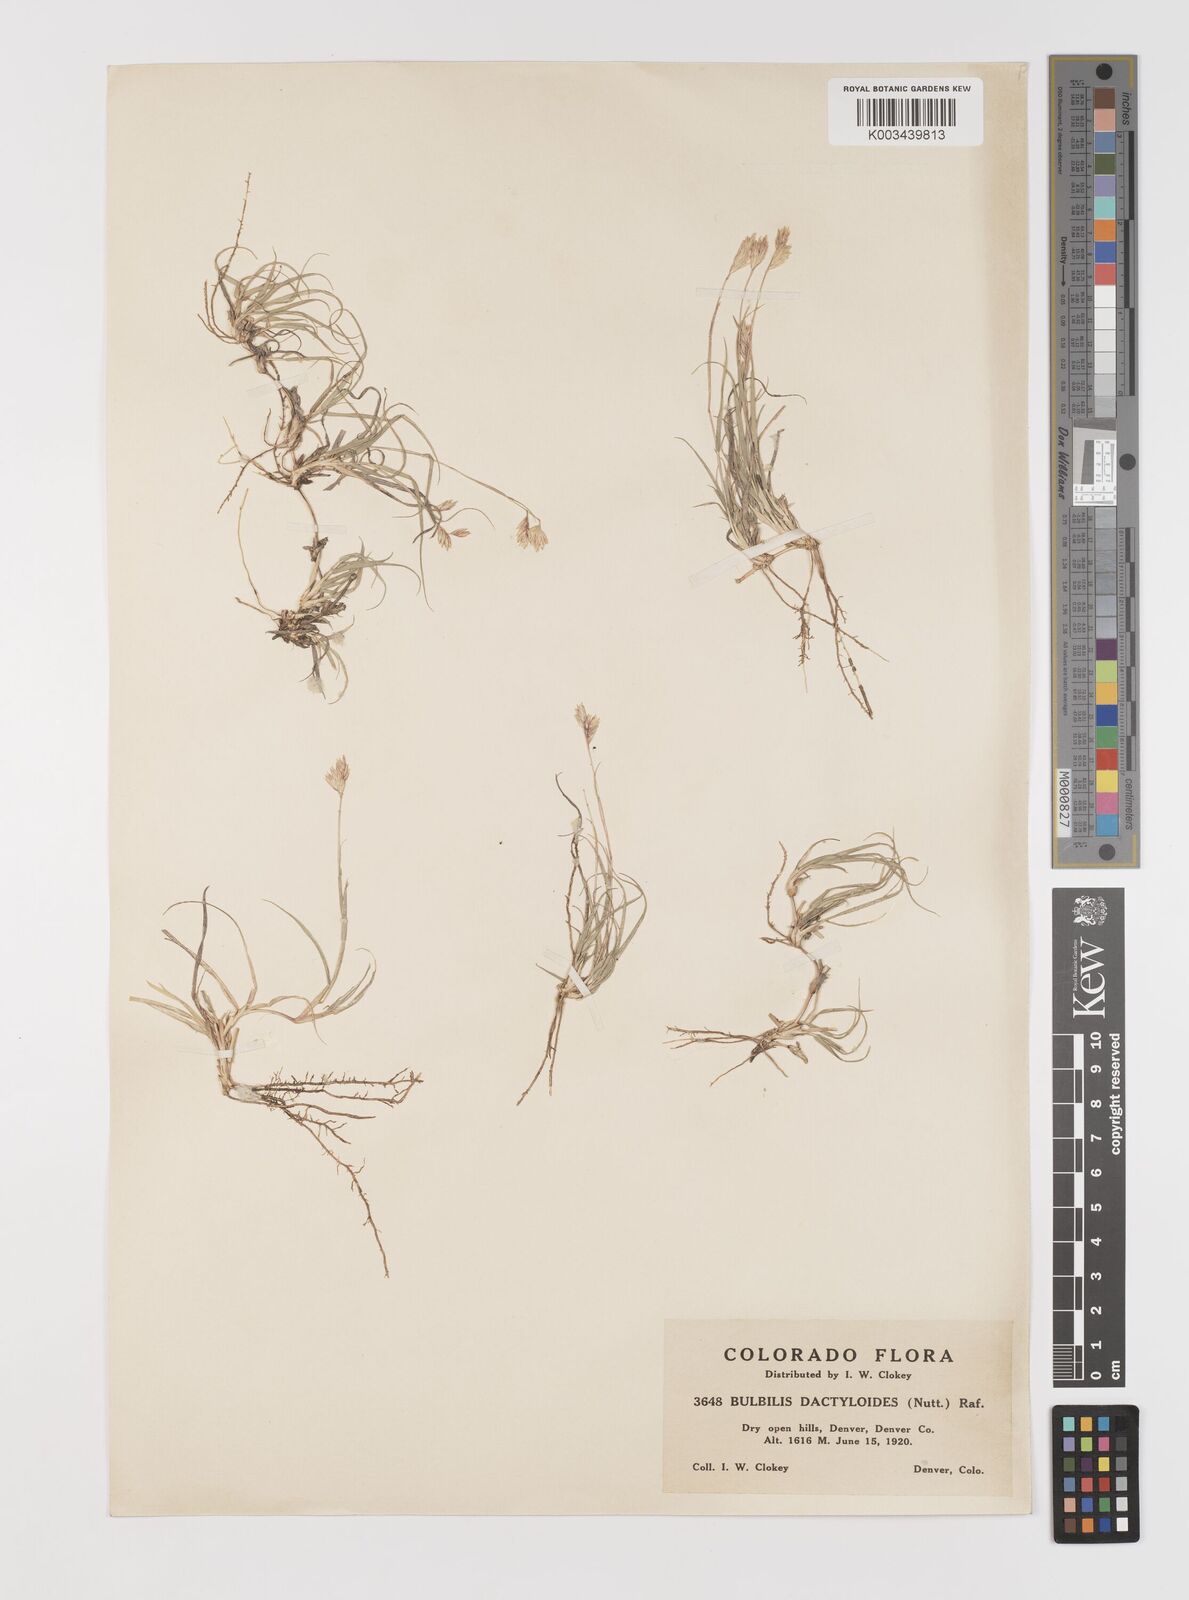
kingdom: Plantae
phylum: Tracheophyta
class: Liliopsida
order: Poales
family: Poaceae
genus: Bouteloua
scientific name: Bouteloua dactyloides
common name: Buffalo grass
